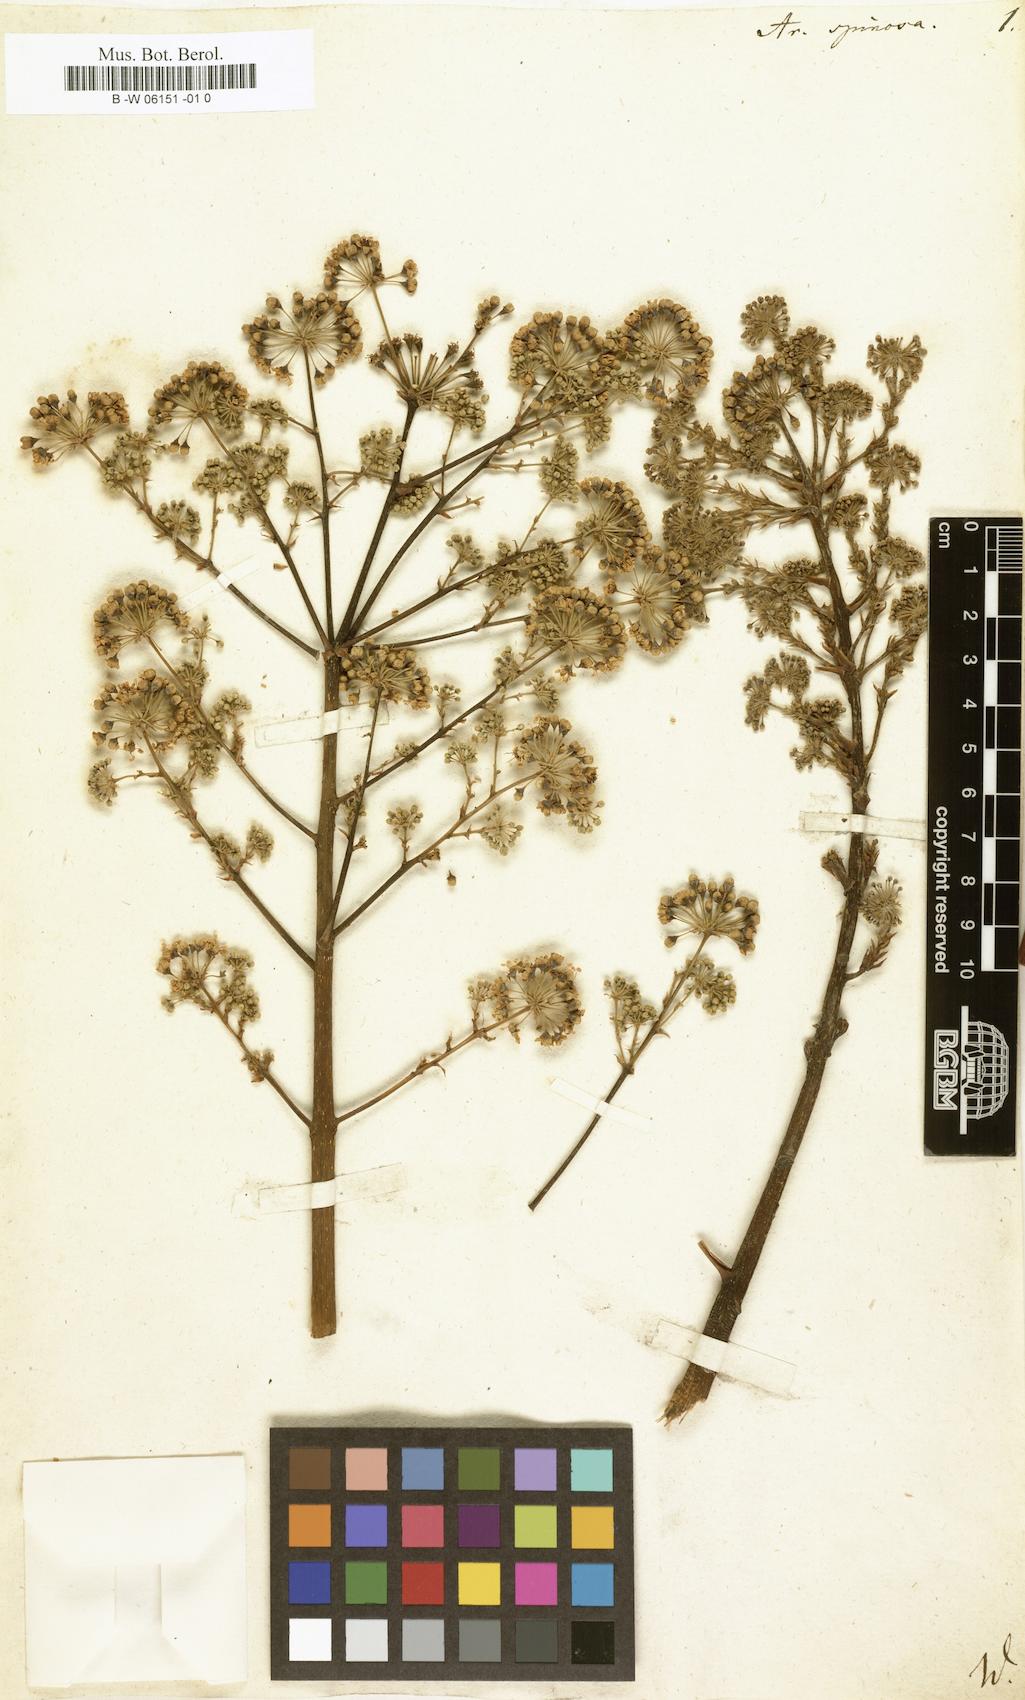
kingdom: Plantae
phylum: Tracheophyta
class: Magnoliopsida
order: Apiales
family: Araliaceae
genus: Aralia
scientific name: Aralia spinosa
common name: Hercules'-club
